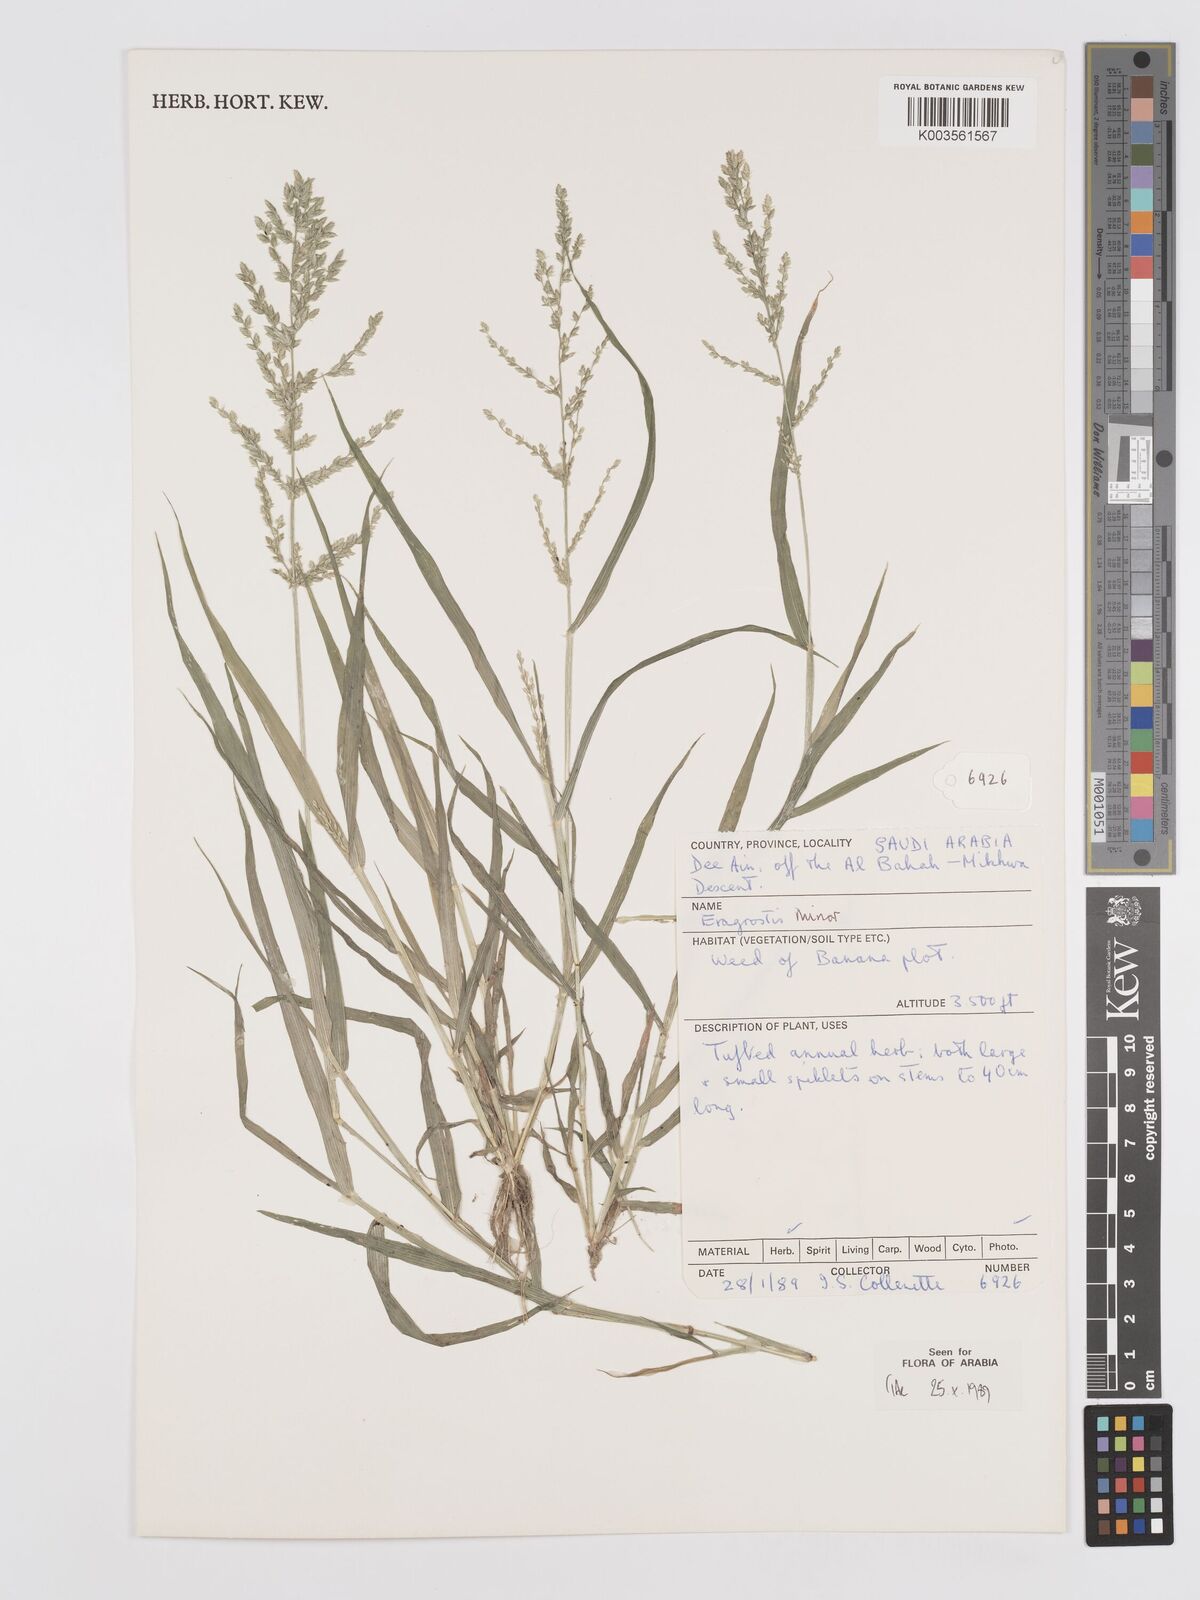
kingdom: Plantae
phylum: Tracheophyta
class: Liliopsida
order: Poales
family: Poaceae
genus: Eragrostis
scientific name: Eragrostis minor
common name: Small love-grass
